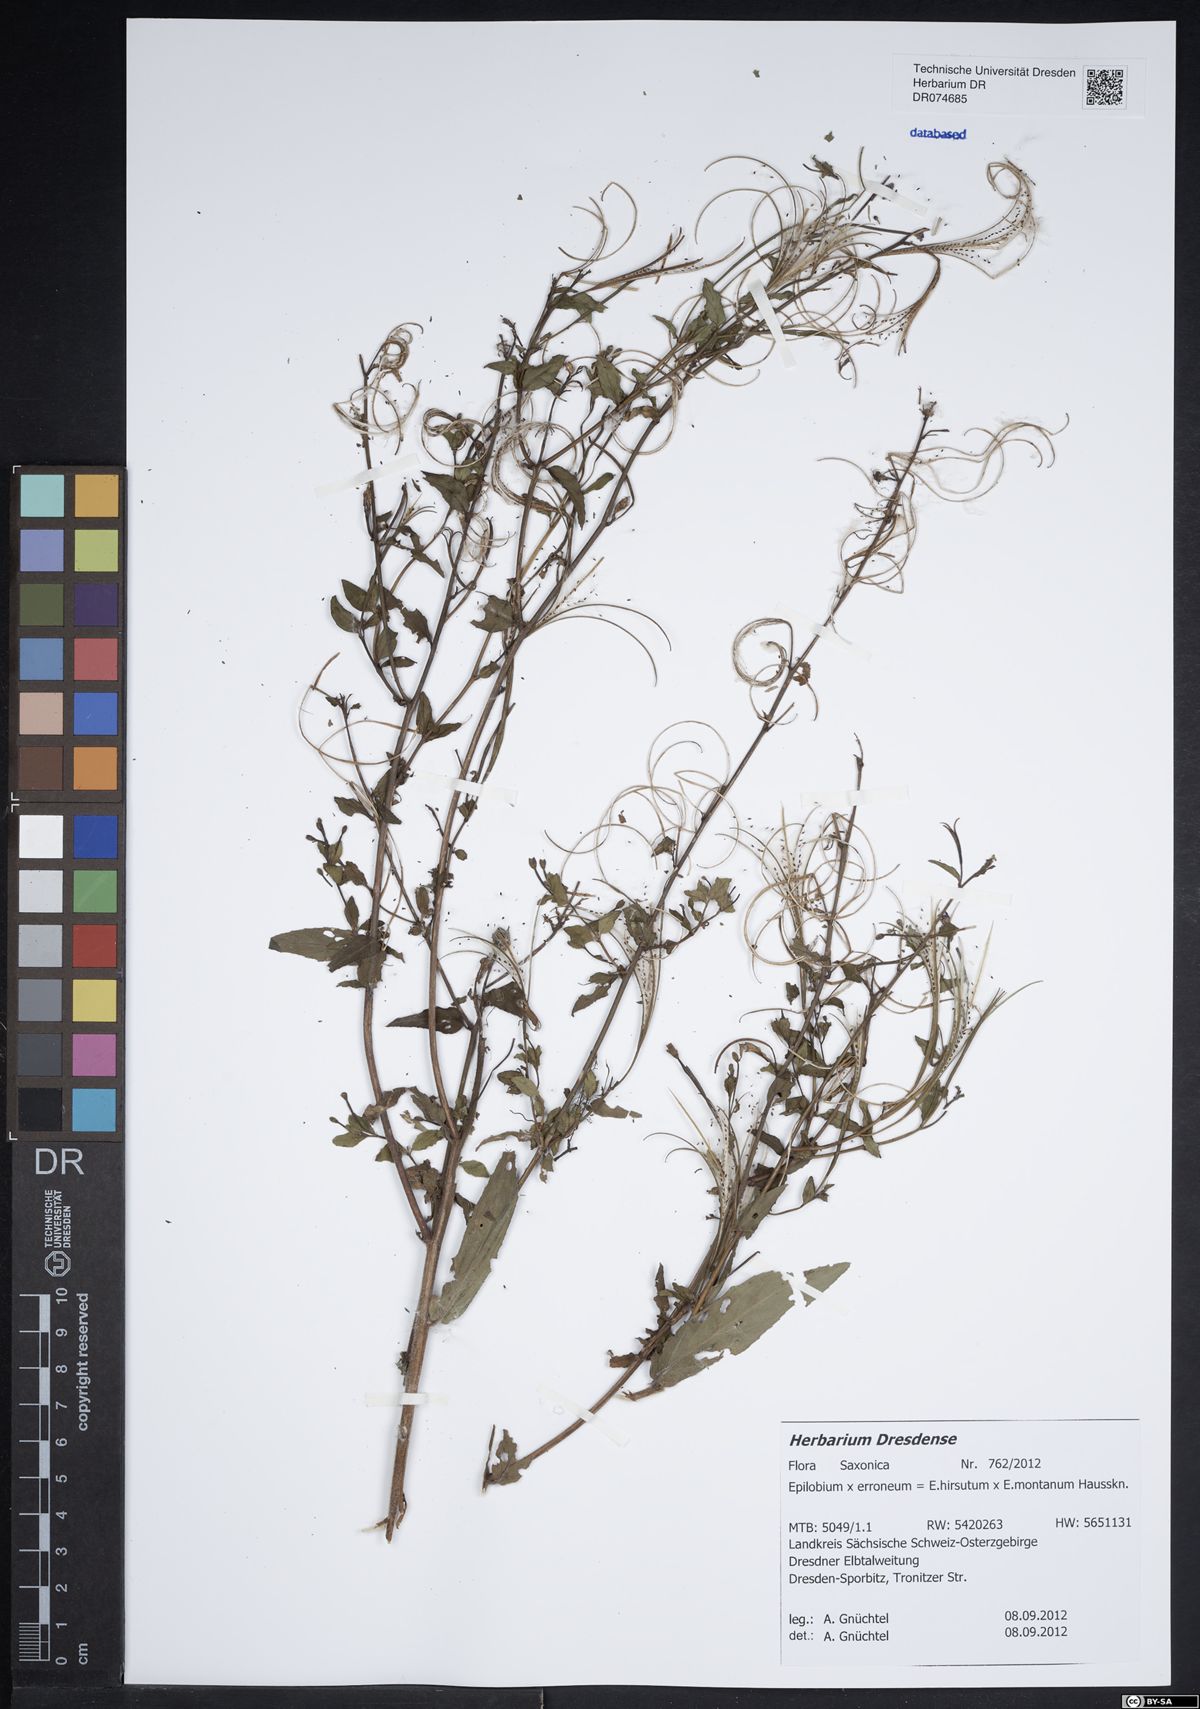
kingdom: Plantae
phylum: Tracheophyta
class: Magnoliopsida
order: Myrtales
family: Onagraceae
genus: Epilobium
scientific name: Epilobium
